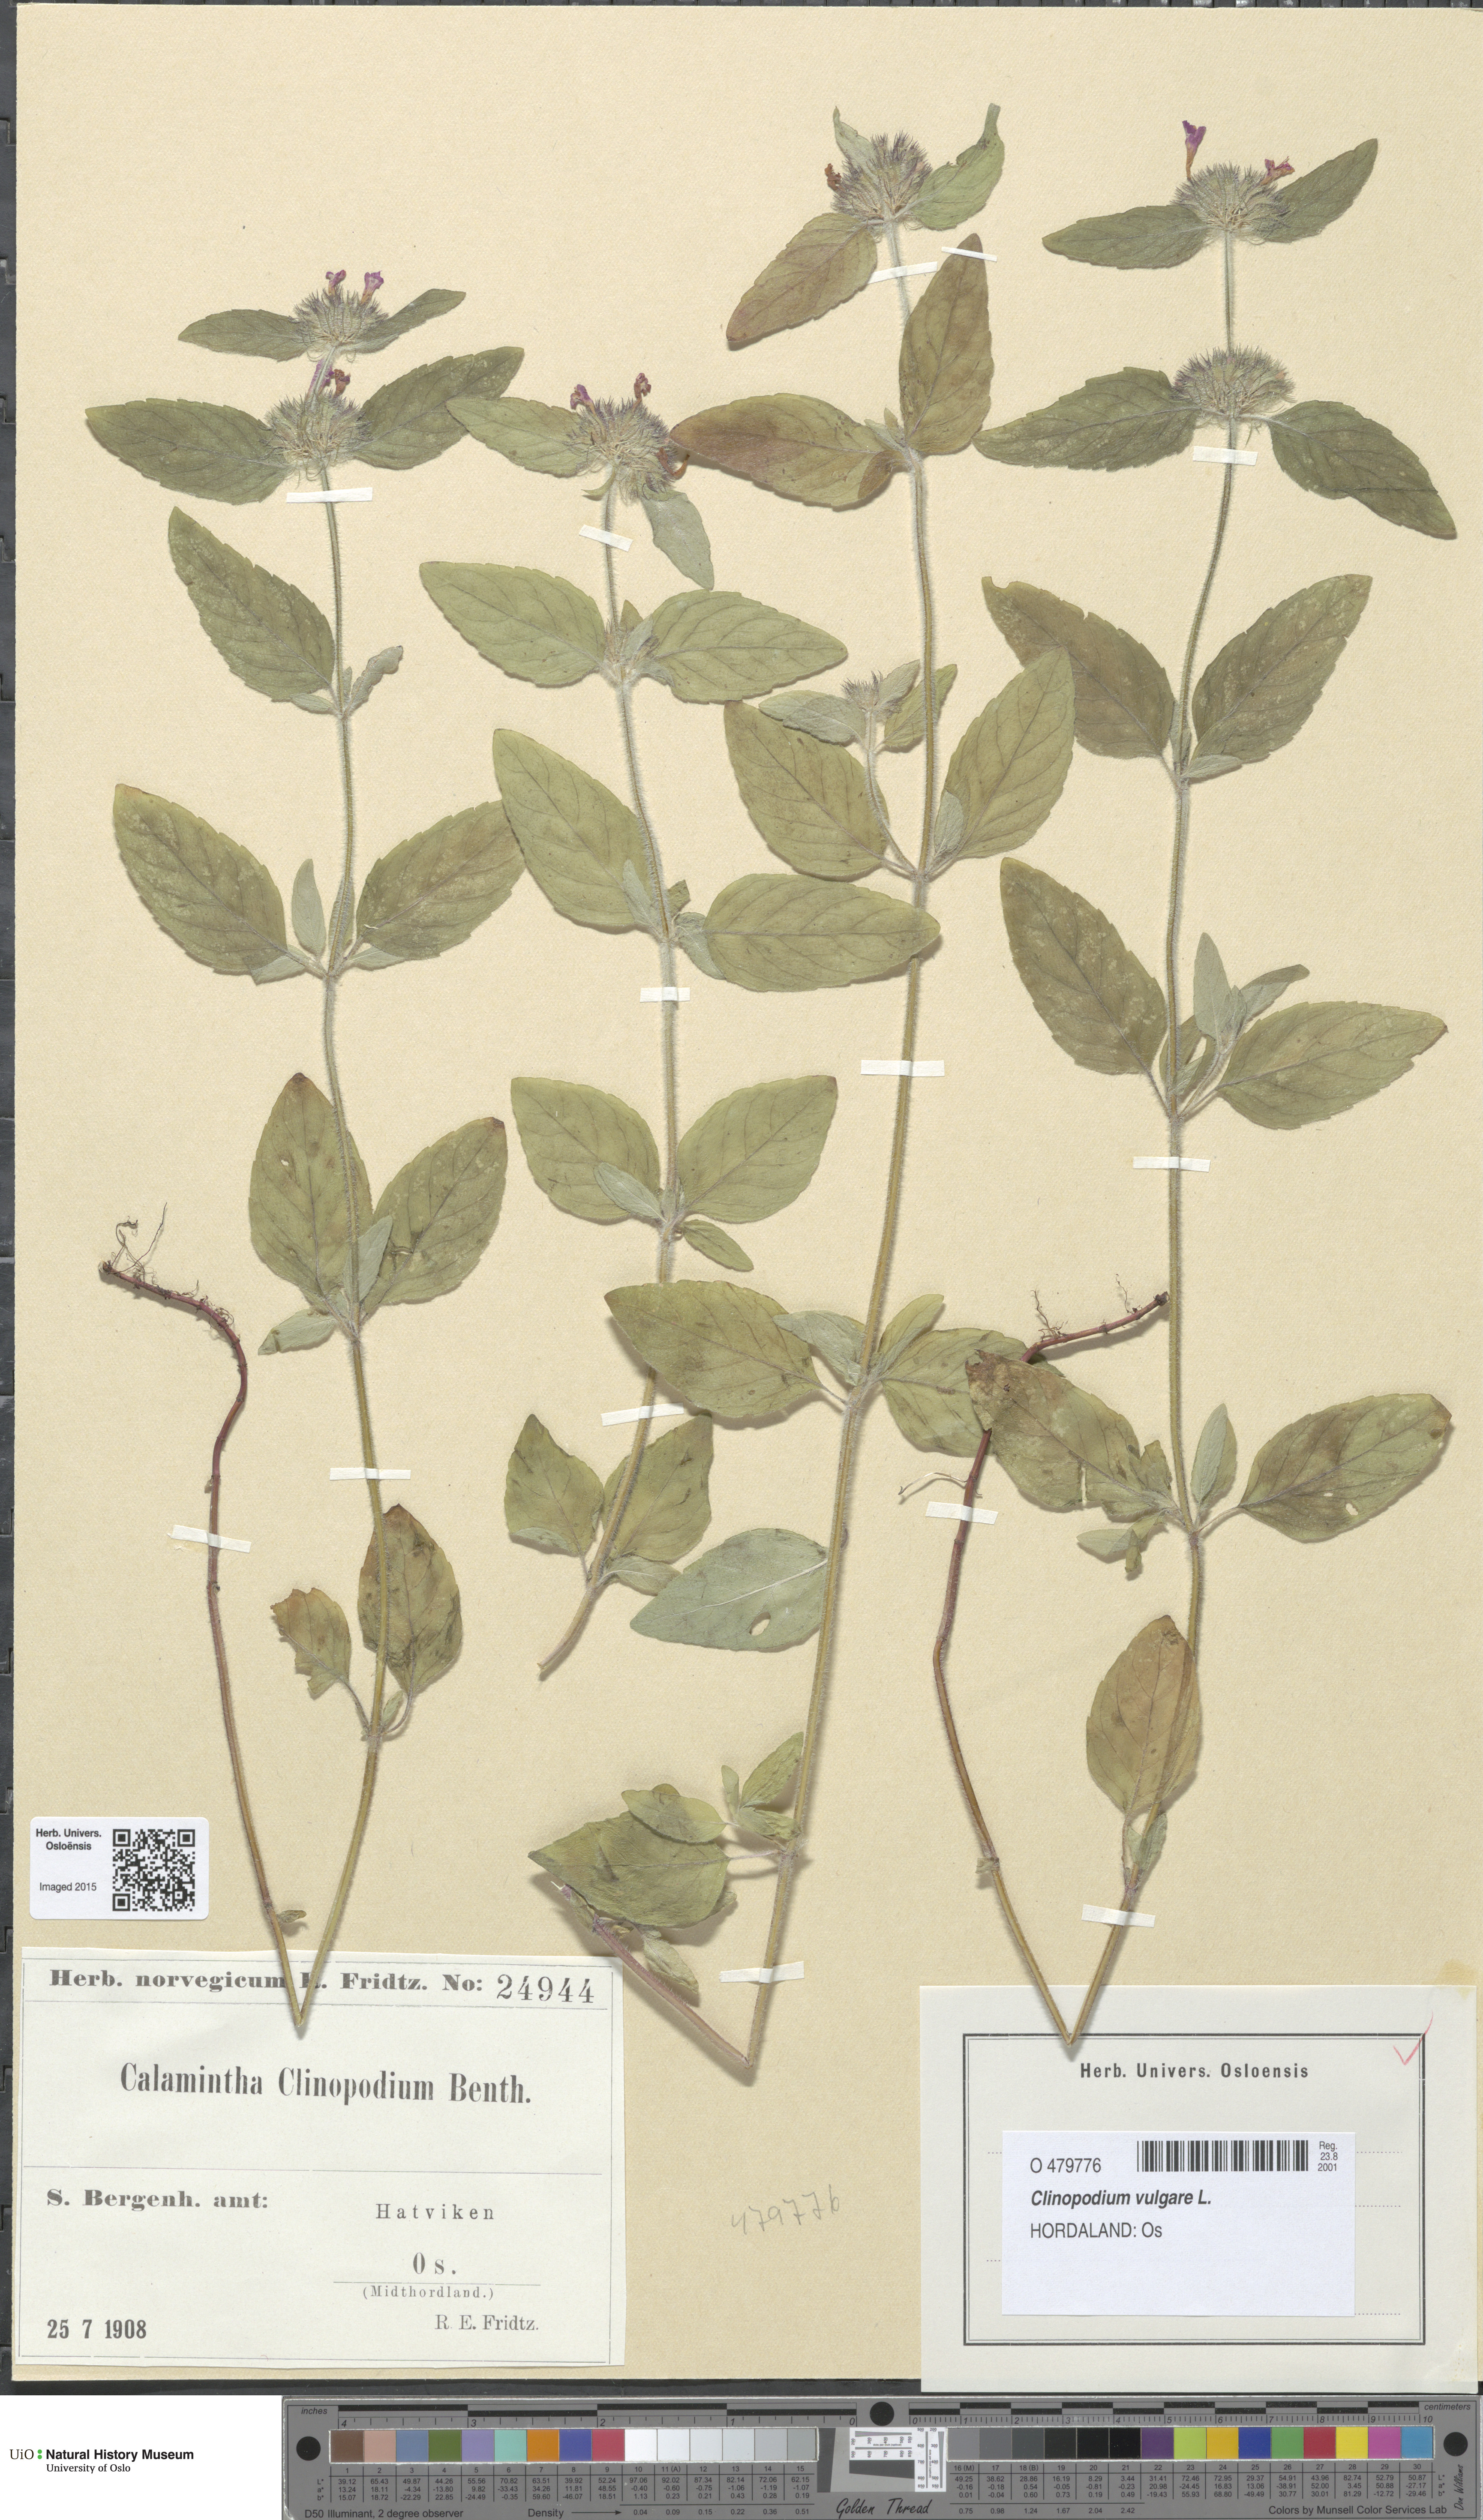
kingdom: Plantae
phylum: Tracheophyta
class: Magnoliopsida
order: Lamiales
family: Lamiaceae
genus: Clinopodium
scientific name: Clinopodium vulgare
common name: Wild basil
